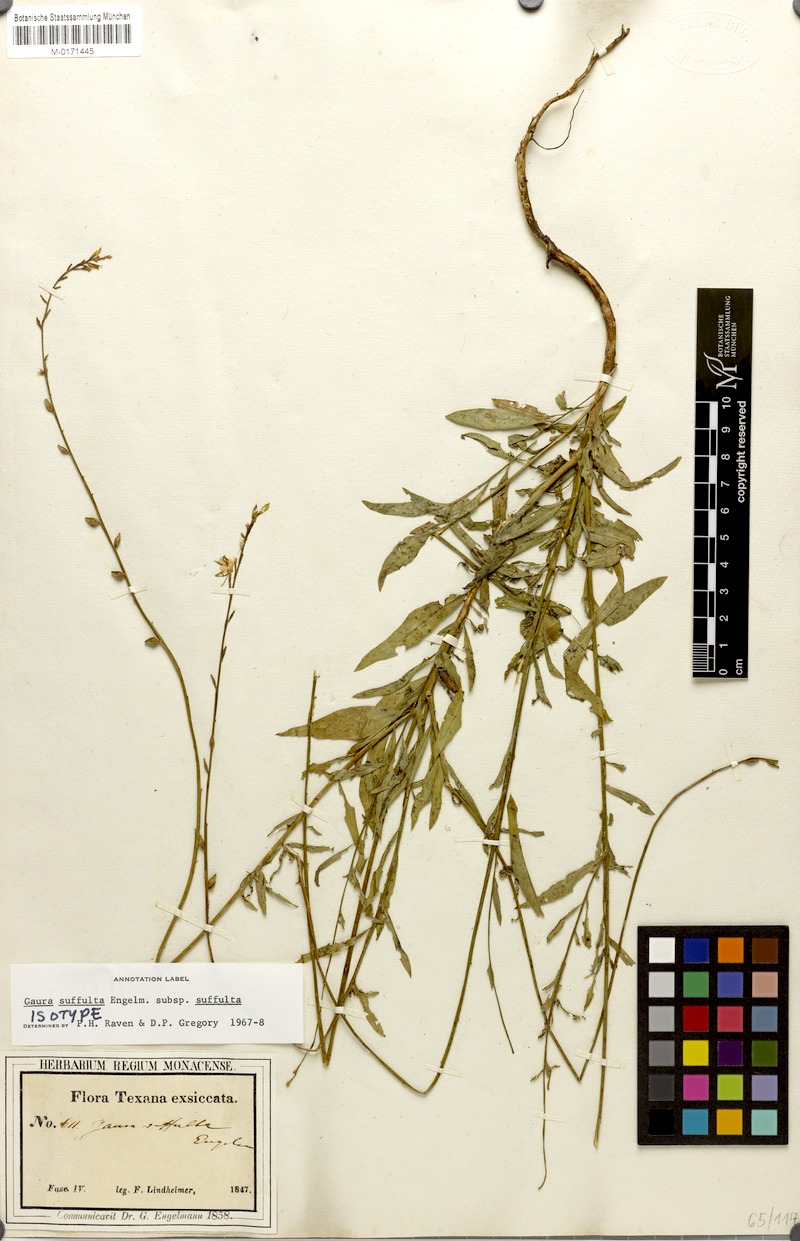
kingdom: Plantae
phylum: Tracheophyta
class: Magnoliopsida
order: Myrtales
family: Onagraceae
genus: Oenothera
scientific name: Oenothera Gaura suffulta
